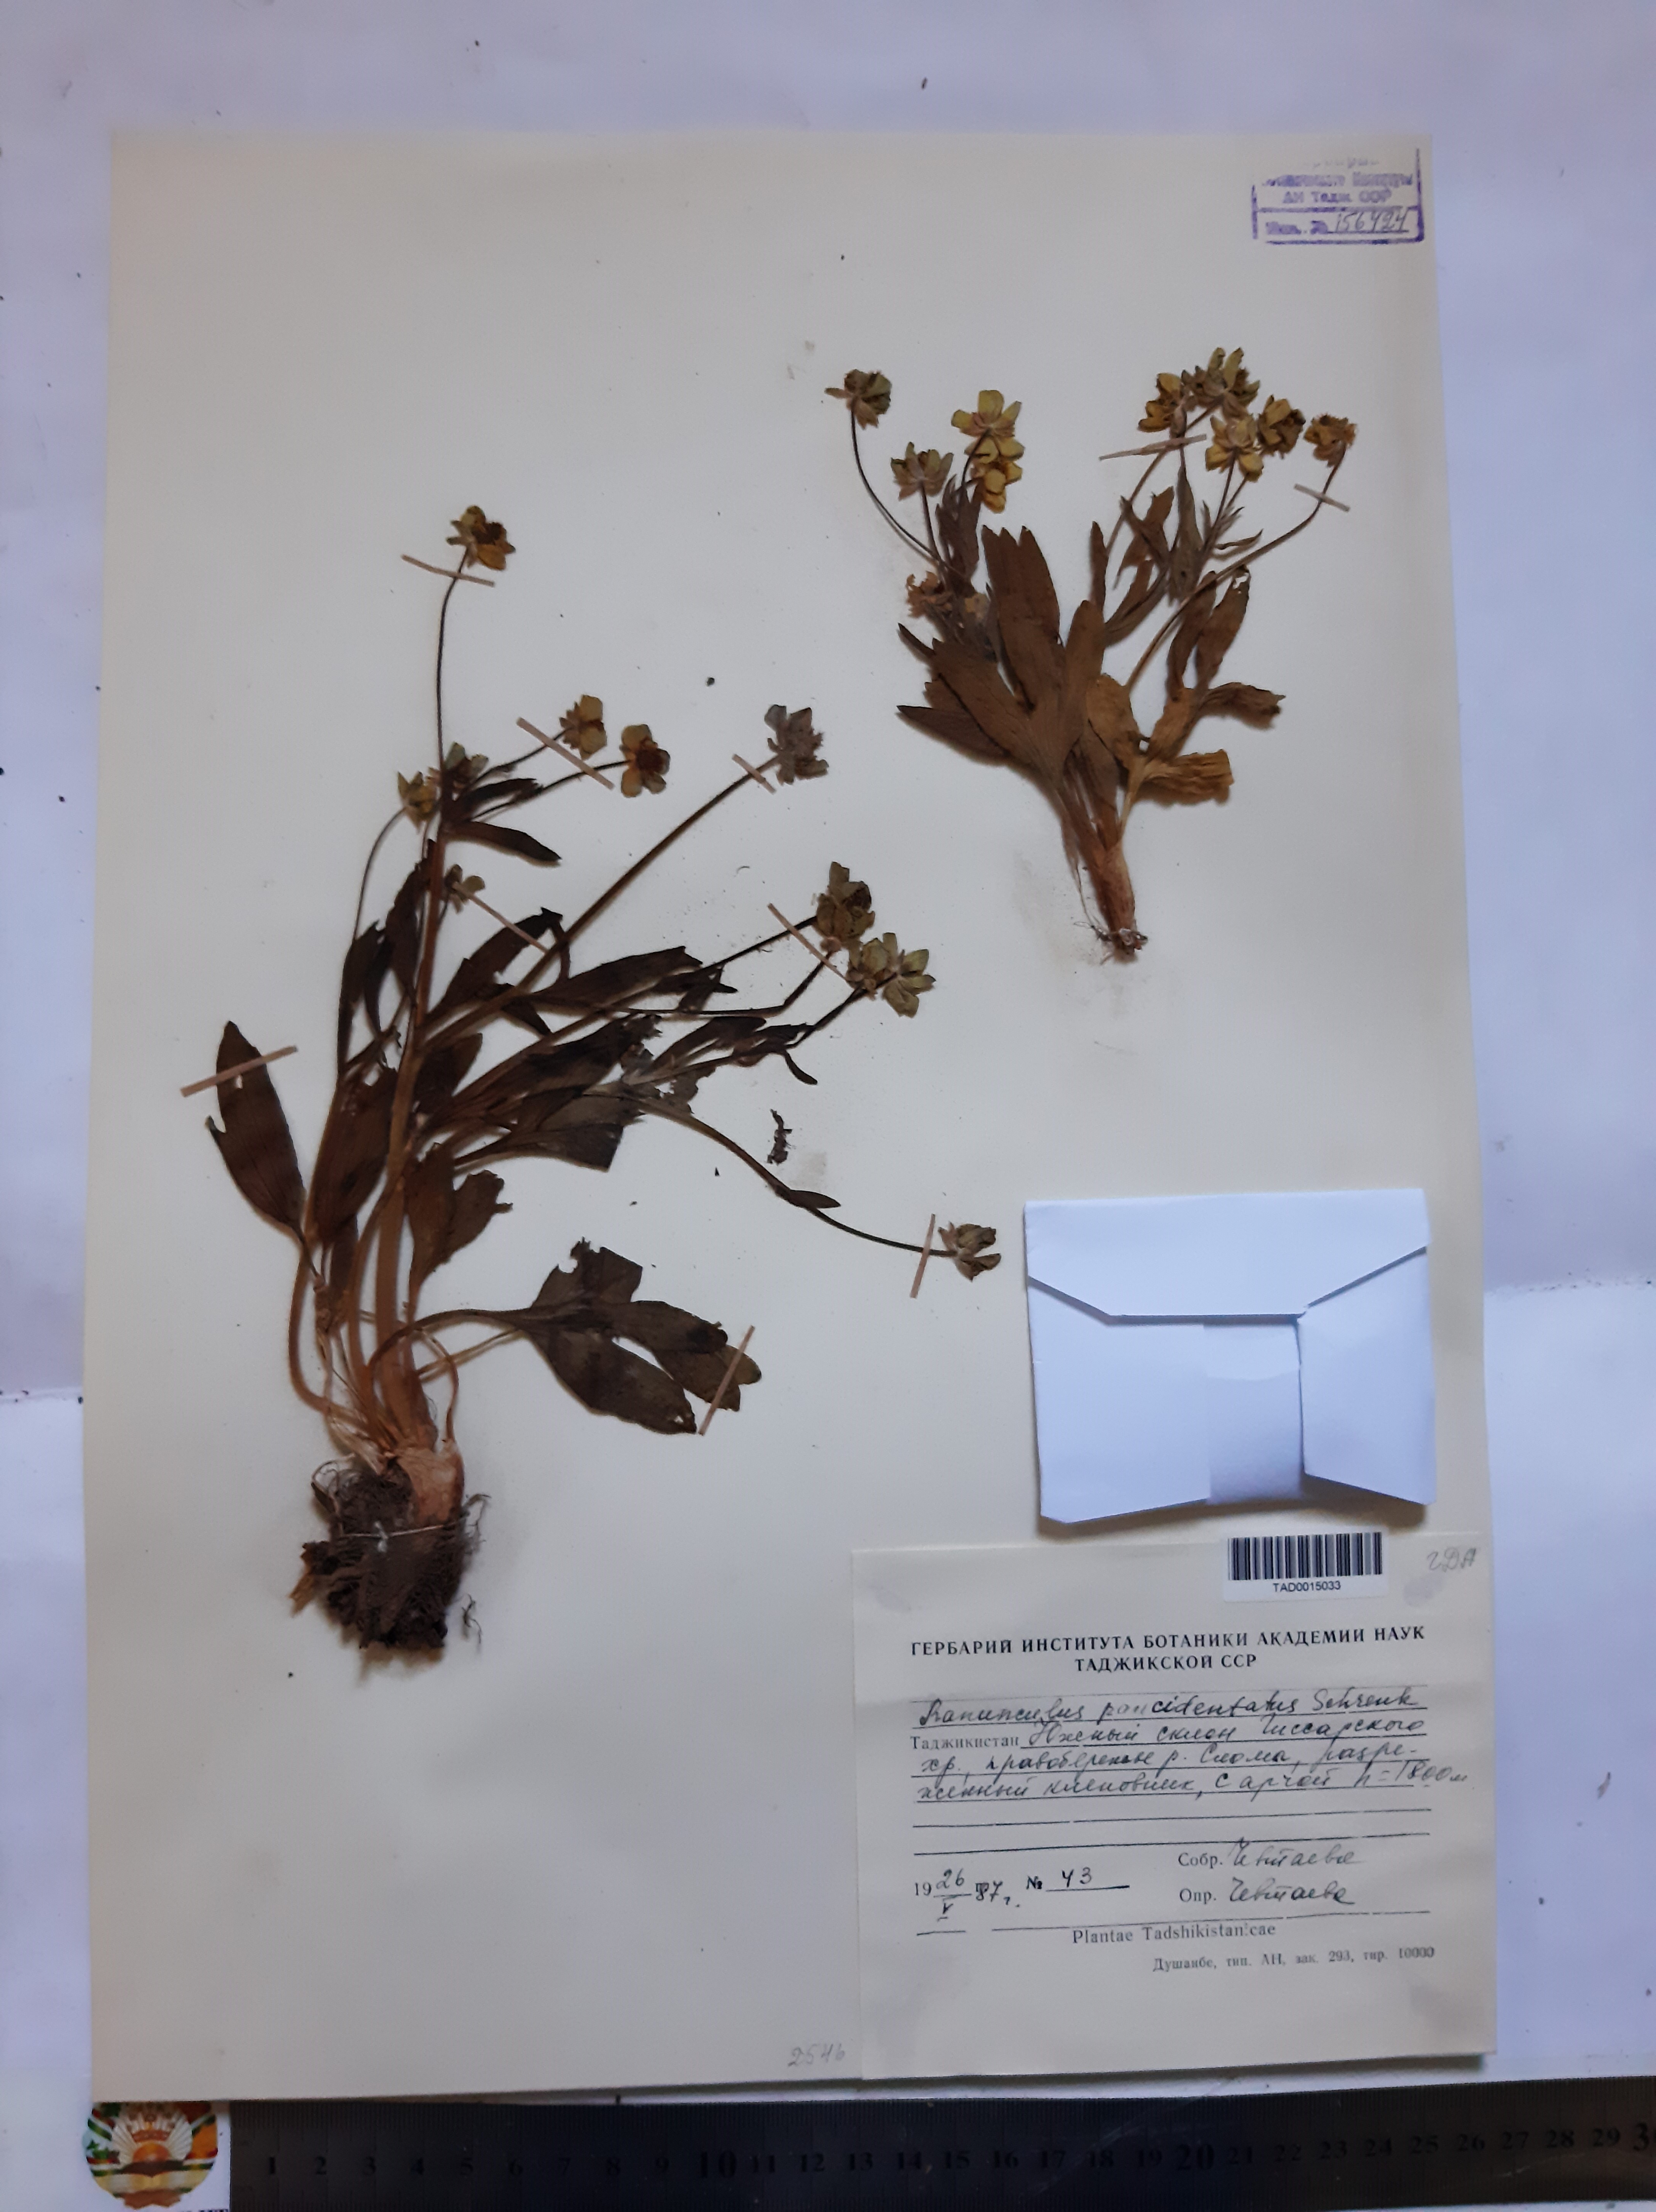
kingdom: Plantae
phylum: Tracheophyta
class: Magnoliopsida
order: Ranunculales
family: Ranunculaceae
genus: Ranunculus
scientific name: Ranunculus paucidentatus
